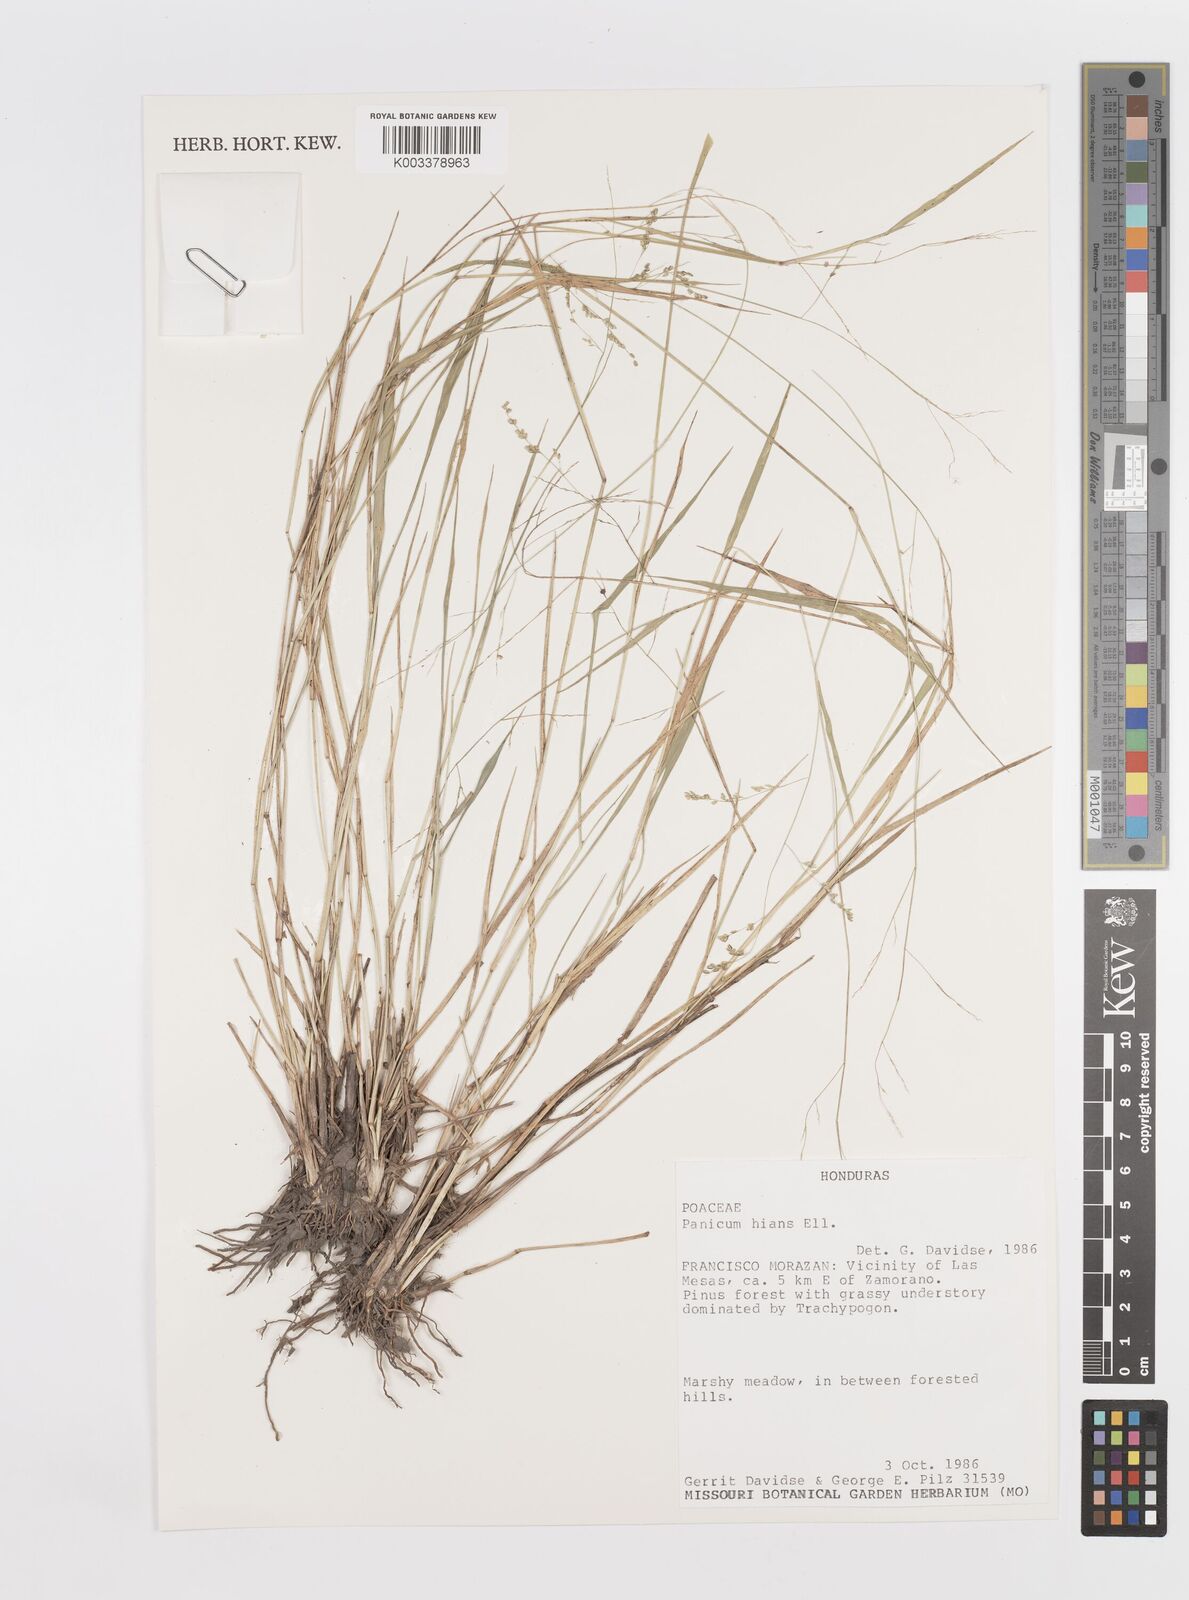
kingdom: Plantae
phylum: Tracheophyta
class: Liliopsida
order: Poales
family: Poaceae
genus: Steinchisma
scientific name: Steinchisma hians
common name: Gaping panic grass
